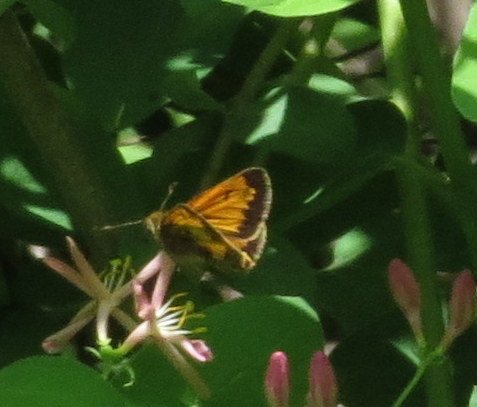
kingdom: Animalia
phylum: Arthropoda
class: Insecta
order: Lepidoptera
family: Hesperiidae
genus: Lon
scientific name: Lon hobomok
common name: Hobomok Skipper
